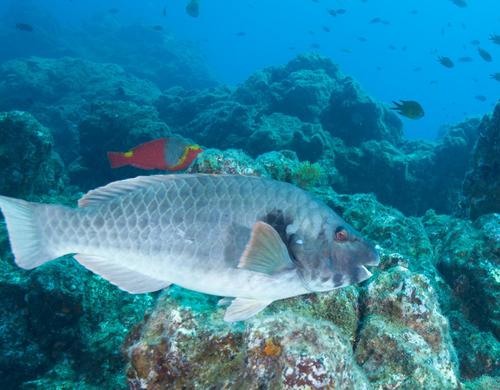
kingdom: Animalia
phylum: Chordata
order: Perciformes
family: Scaridae
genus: Sparisoma
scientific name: Sparisoma cretense
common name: Parrotfish
